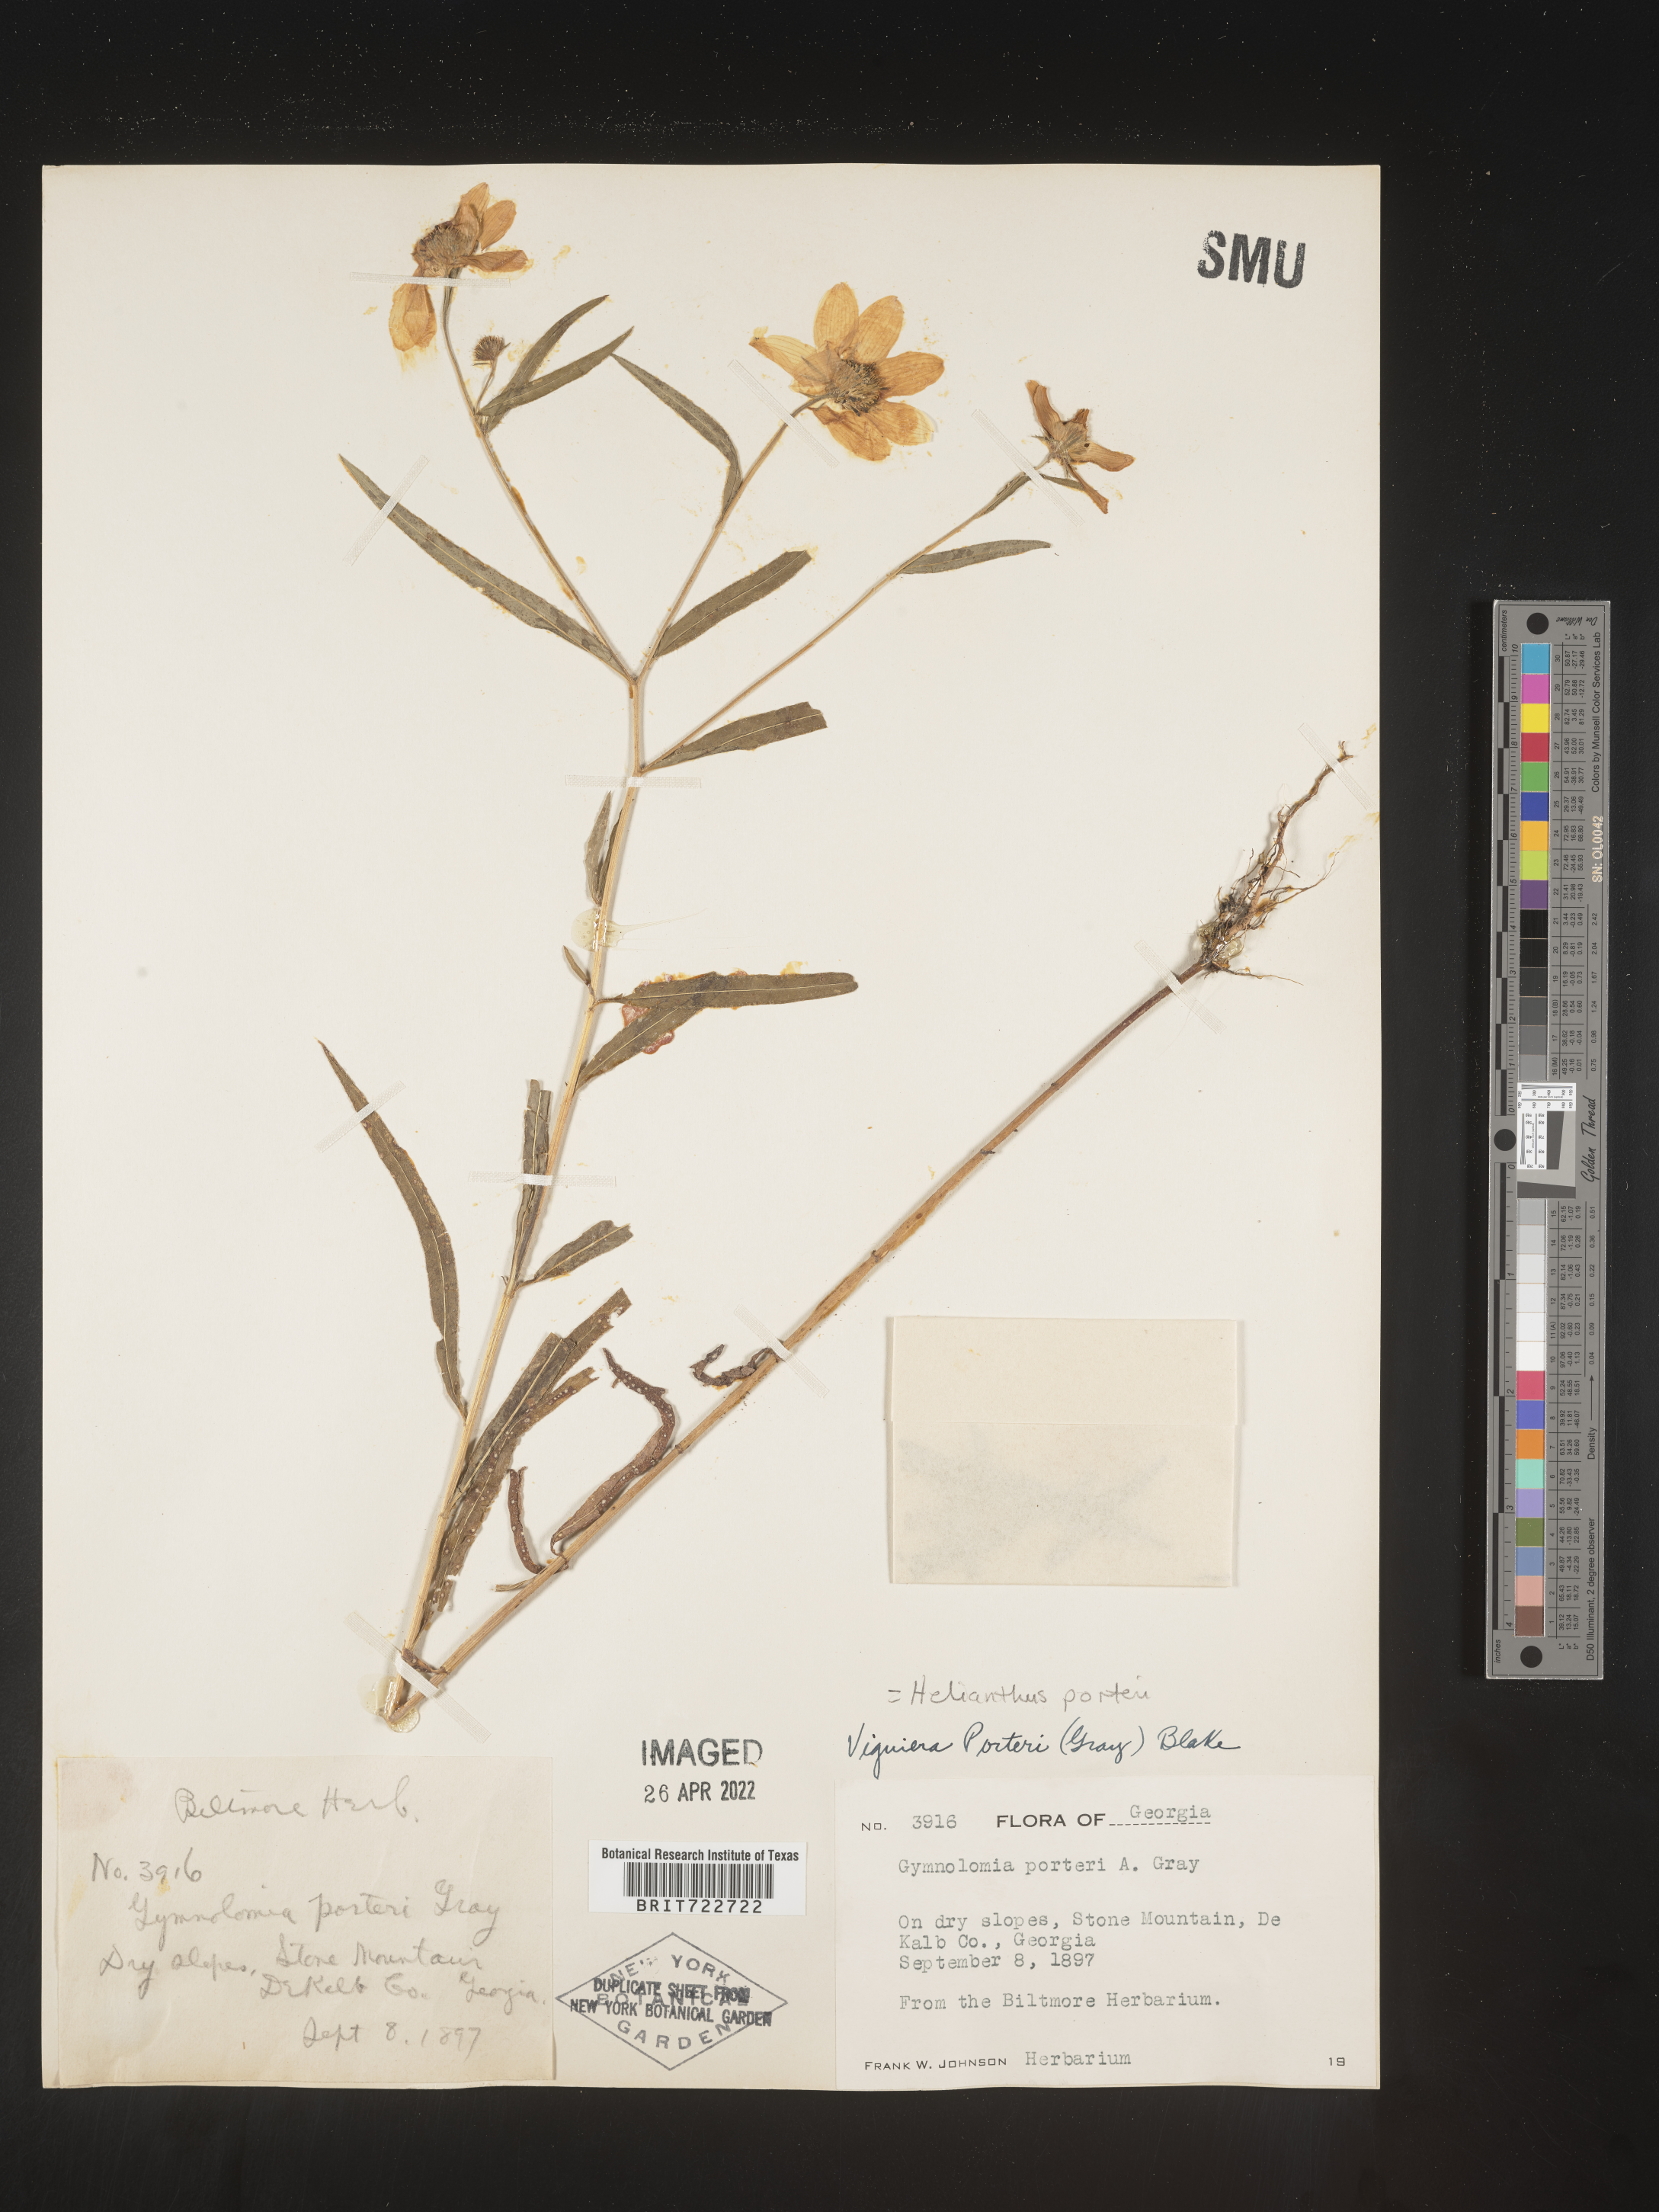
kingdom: Plantae
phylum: Tracheophyta
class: Magnoliopsida
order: Asterales
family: Asteraceae
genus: Helianthus
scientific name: Helianthus porteri
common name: Porter's sunflower
